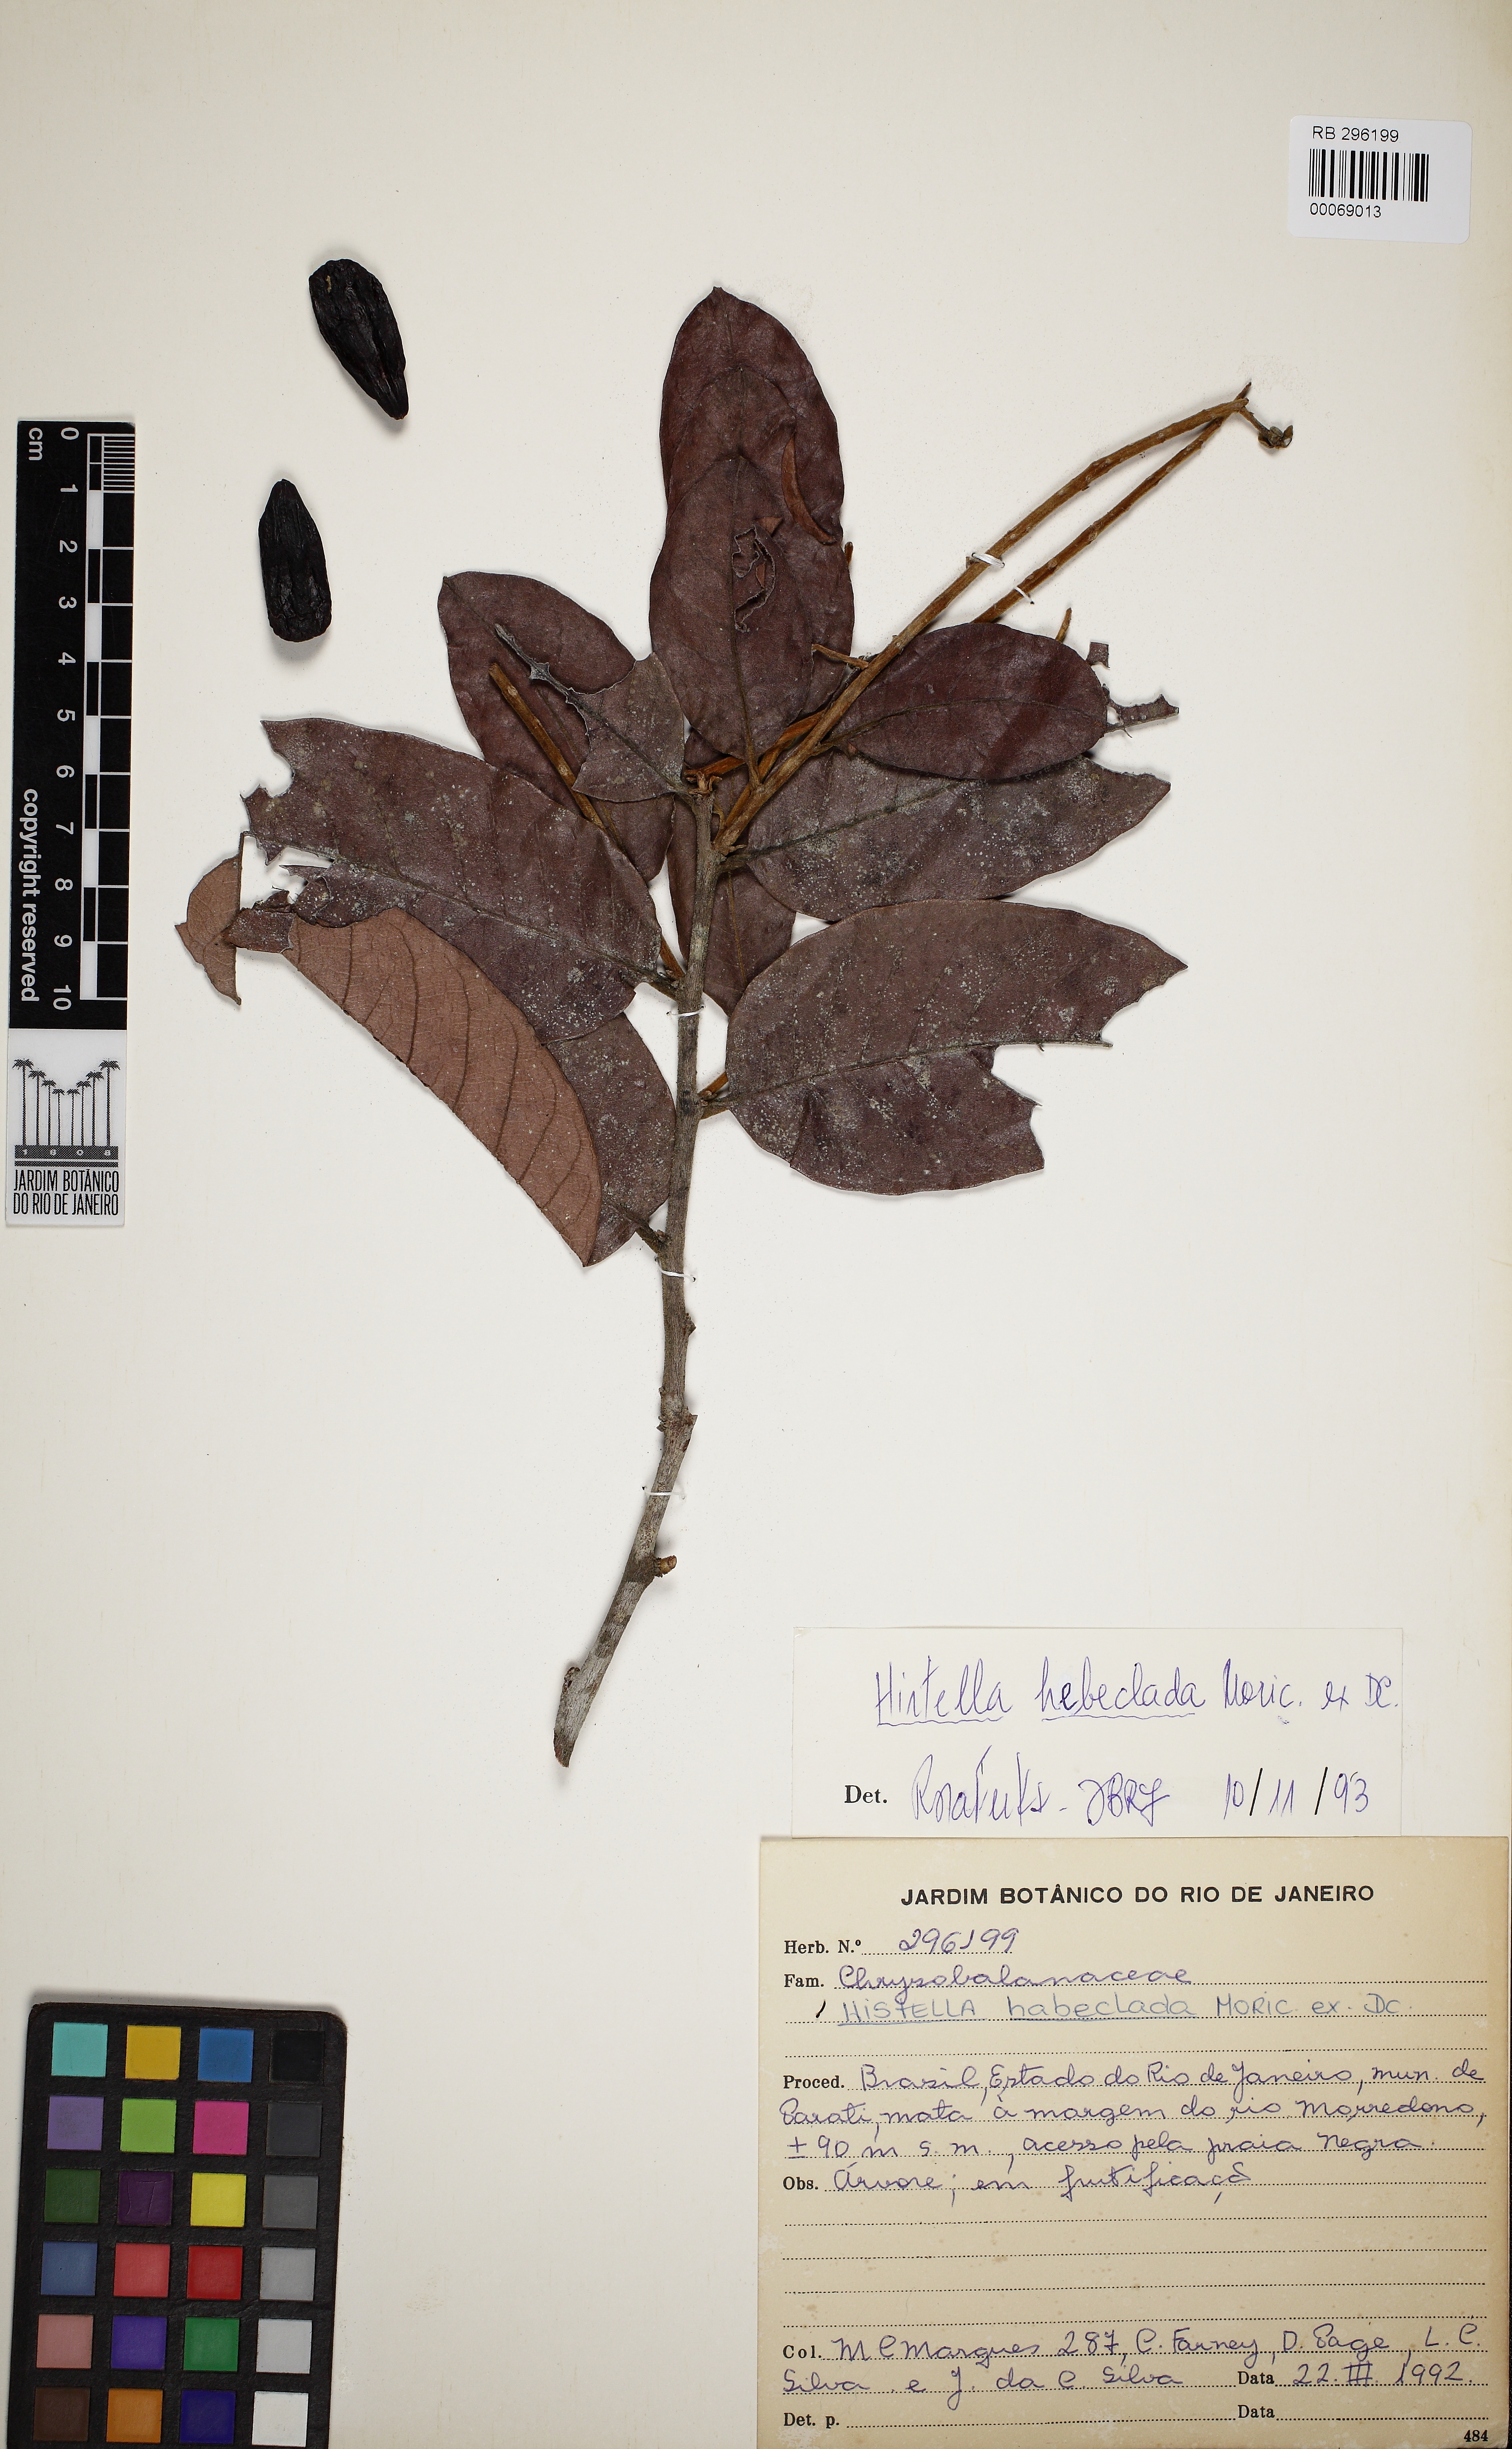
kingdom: Plantae
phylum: Tracheophyta
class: Magnoliopsida
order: Malpighiales
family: Chrysobalanaceae
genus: Hirtella
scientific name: Hirtella hebeclada
